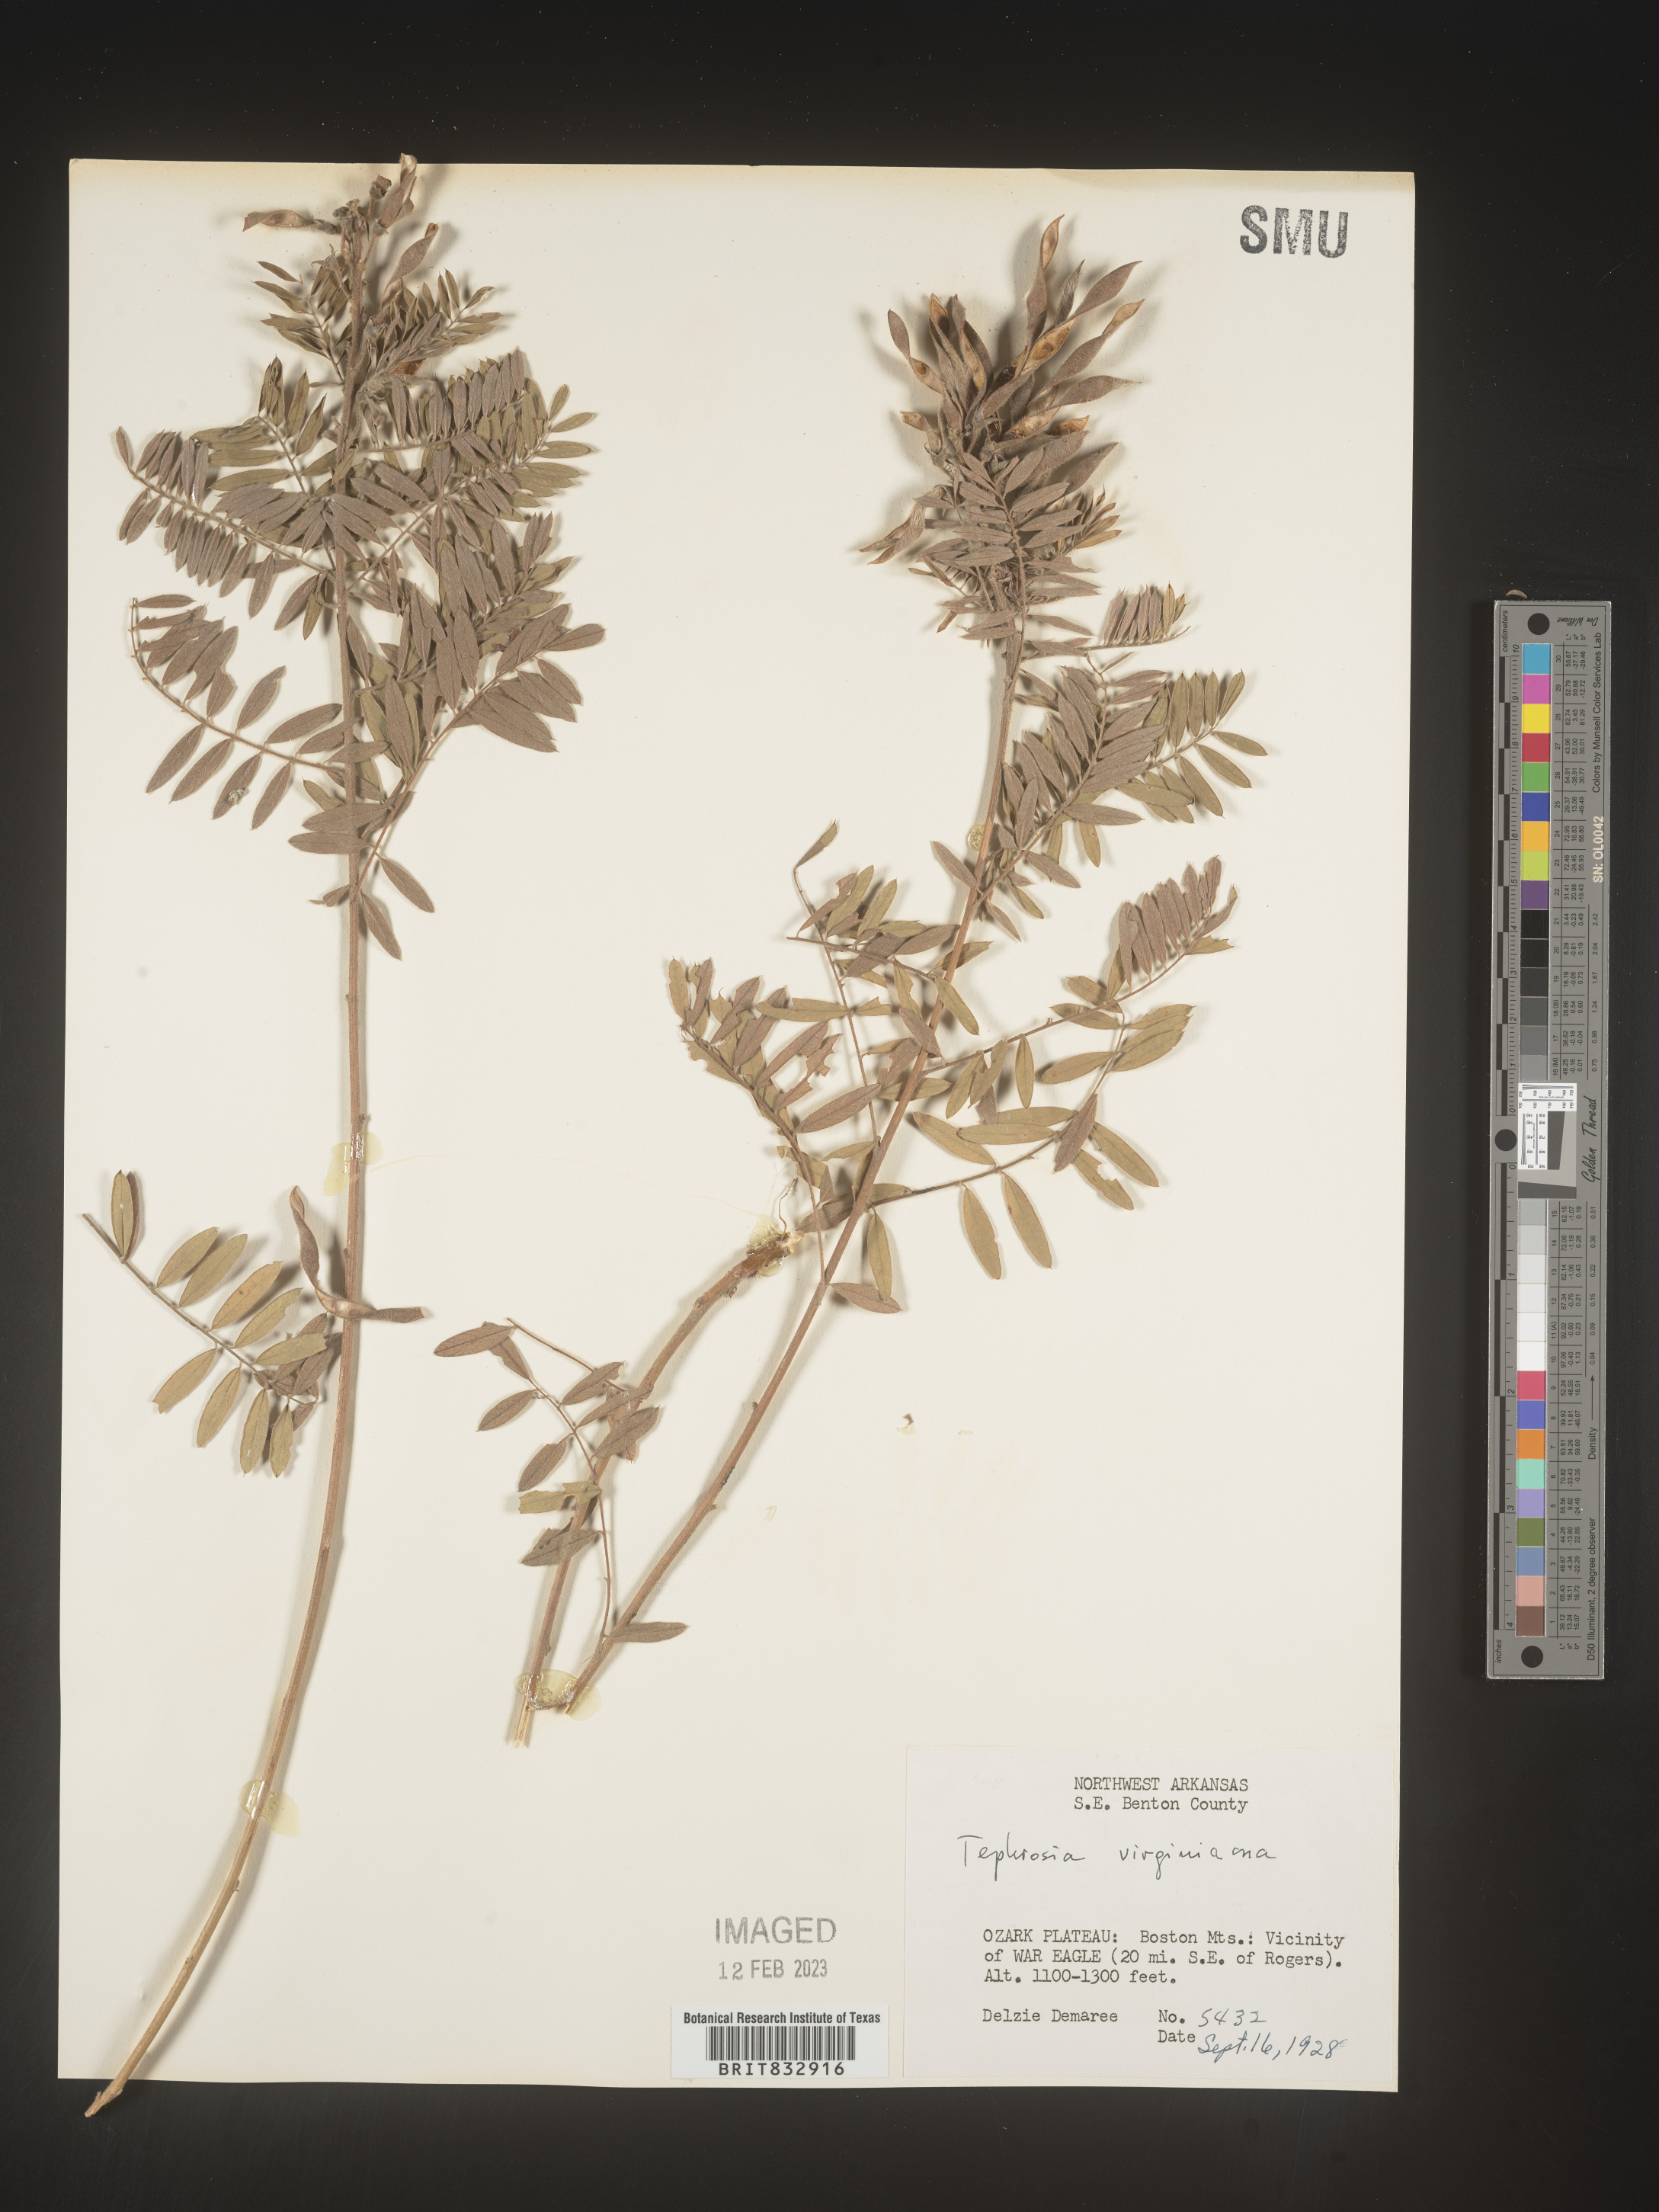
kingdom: Plantae
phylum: Tracheophyta
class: Magnoliopsida
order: Fabales
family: Fabaceae
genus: Tephrosia
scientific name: Tephrosia virginiana
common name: Rabbit-pea
